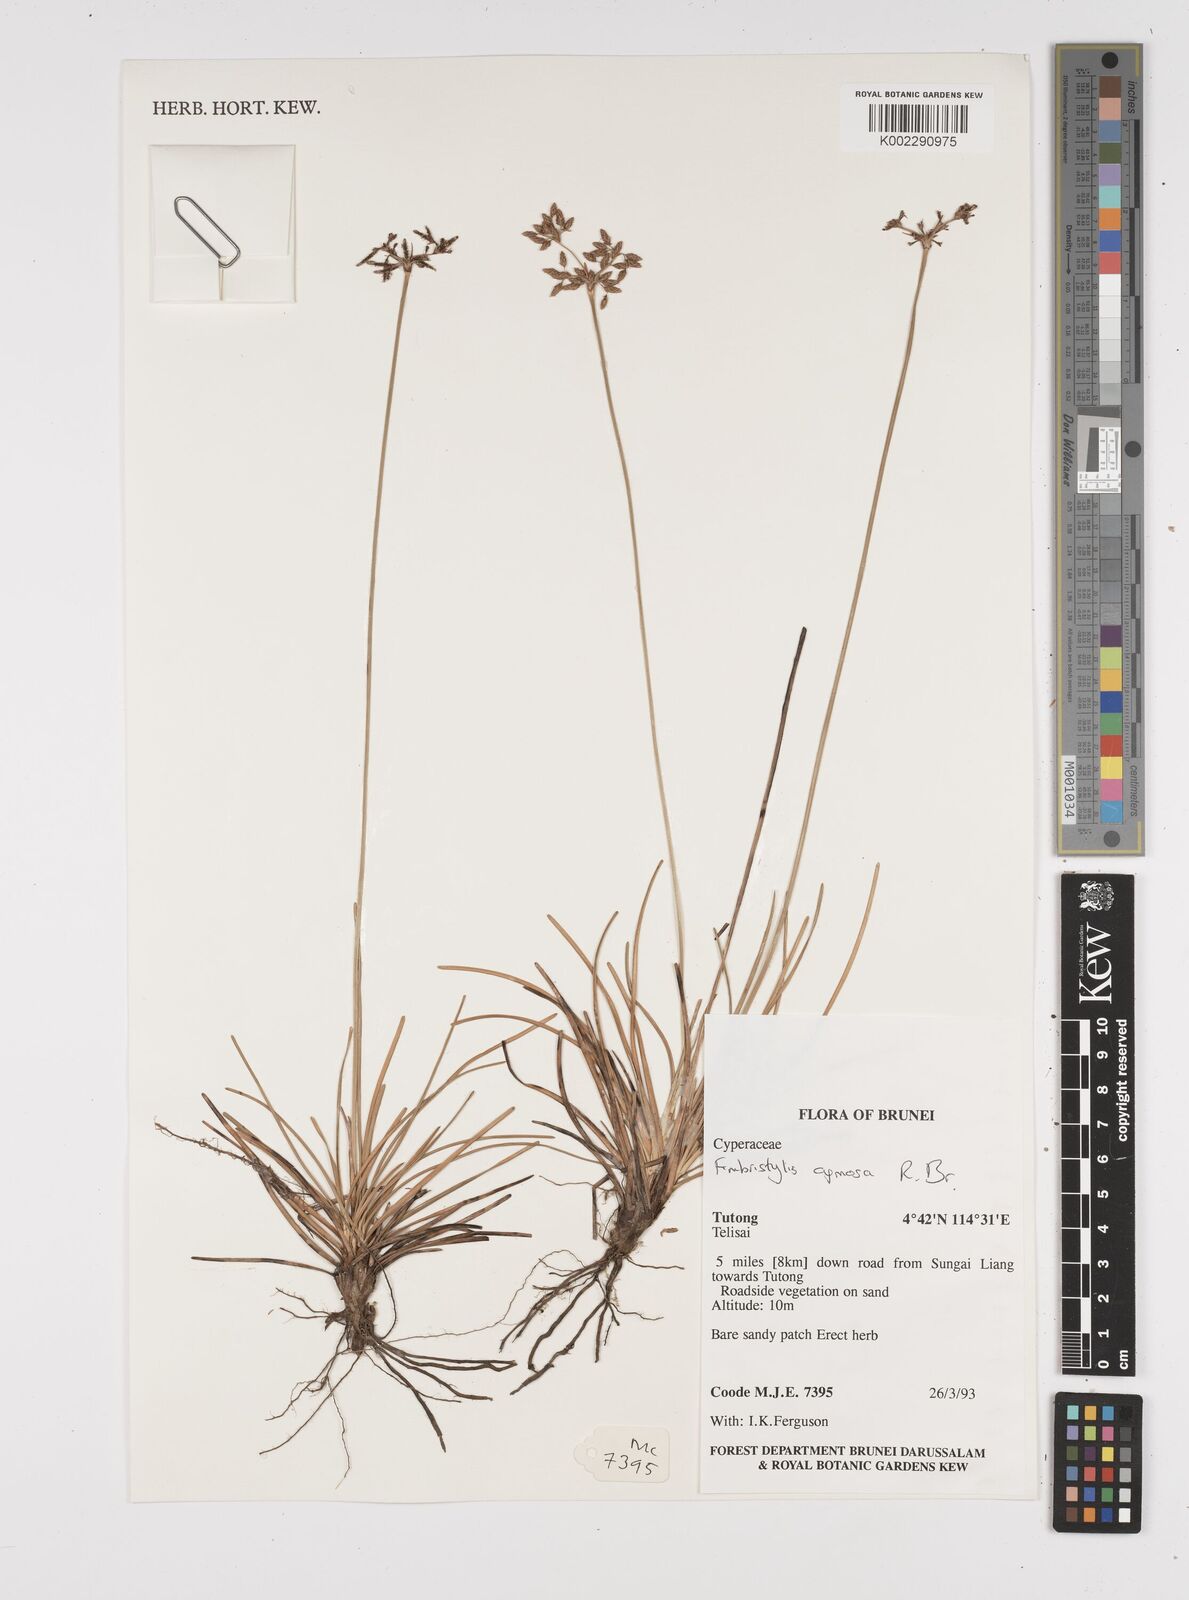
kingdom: Plantae
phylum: Tracheophyta
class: Liliopsida
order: Poales
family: Cyperaceae
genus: Fimbristylis
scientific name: Fimbristylis cymosa
